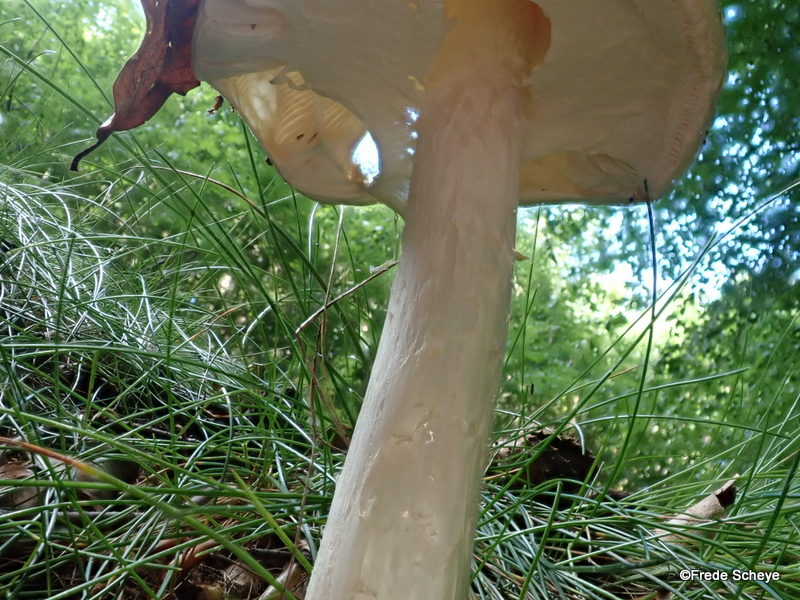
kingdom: Fungi
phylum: Basidiomycota
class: Agaricomycetes
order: Agaricales
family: Amanitaceae
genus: Amanita
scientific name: Amanita virosa
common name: snehvid fluesvamp
